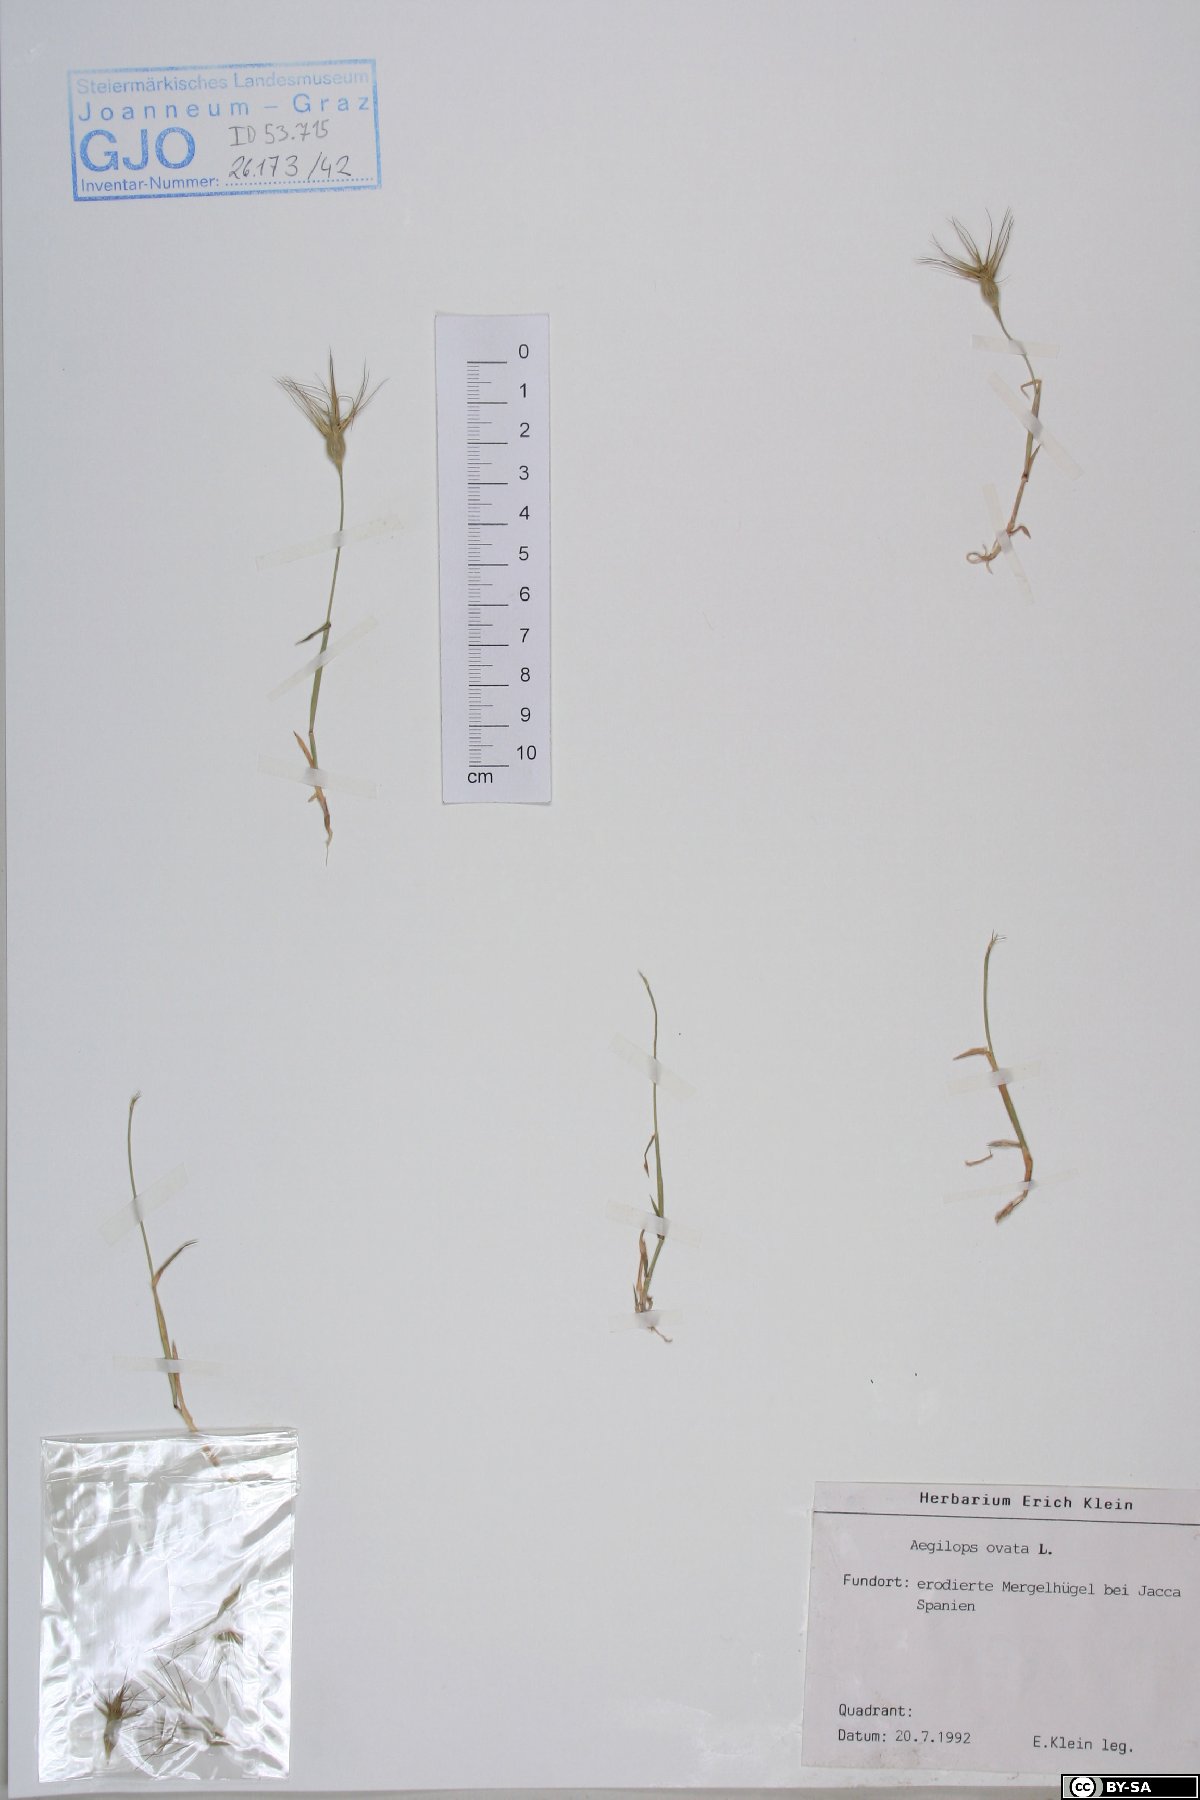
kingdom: Plantae
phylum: Tracheophyta
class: Liliopsida
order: Poales
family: Poaceae
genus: Aegilops
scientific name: Aegilops neglecta
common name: Three-awn goat grass
